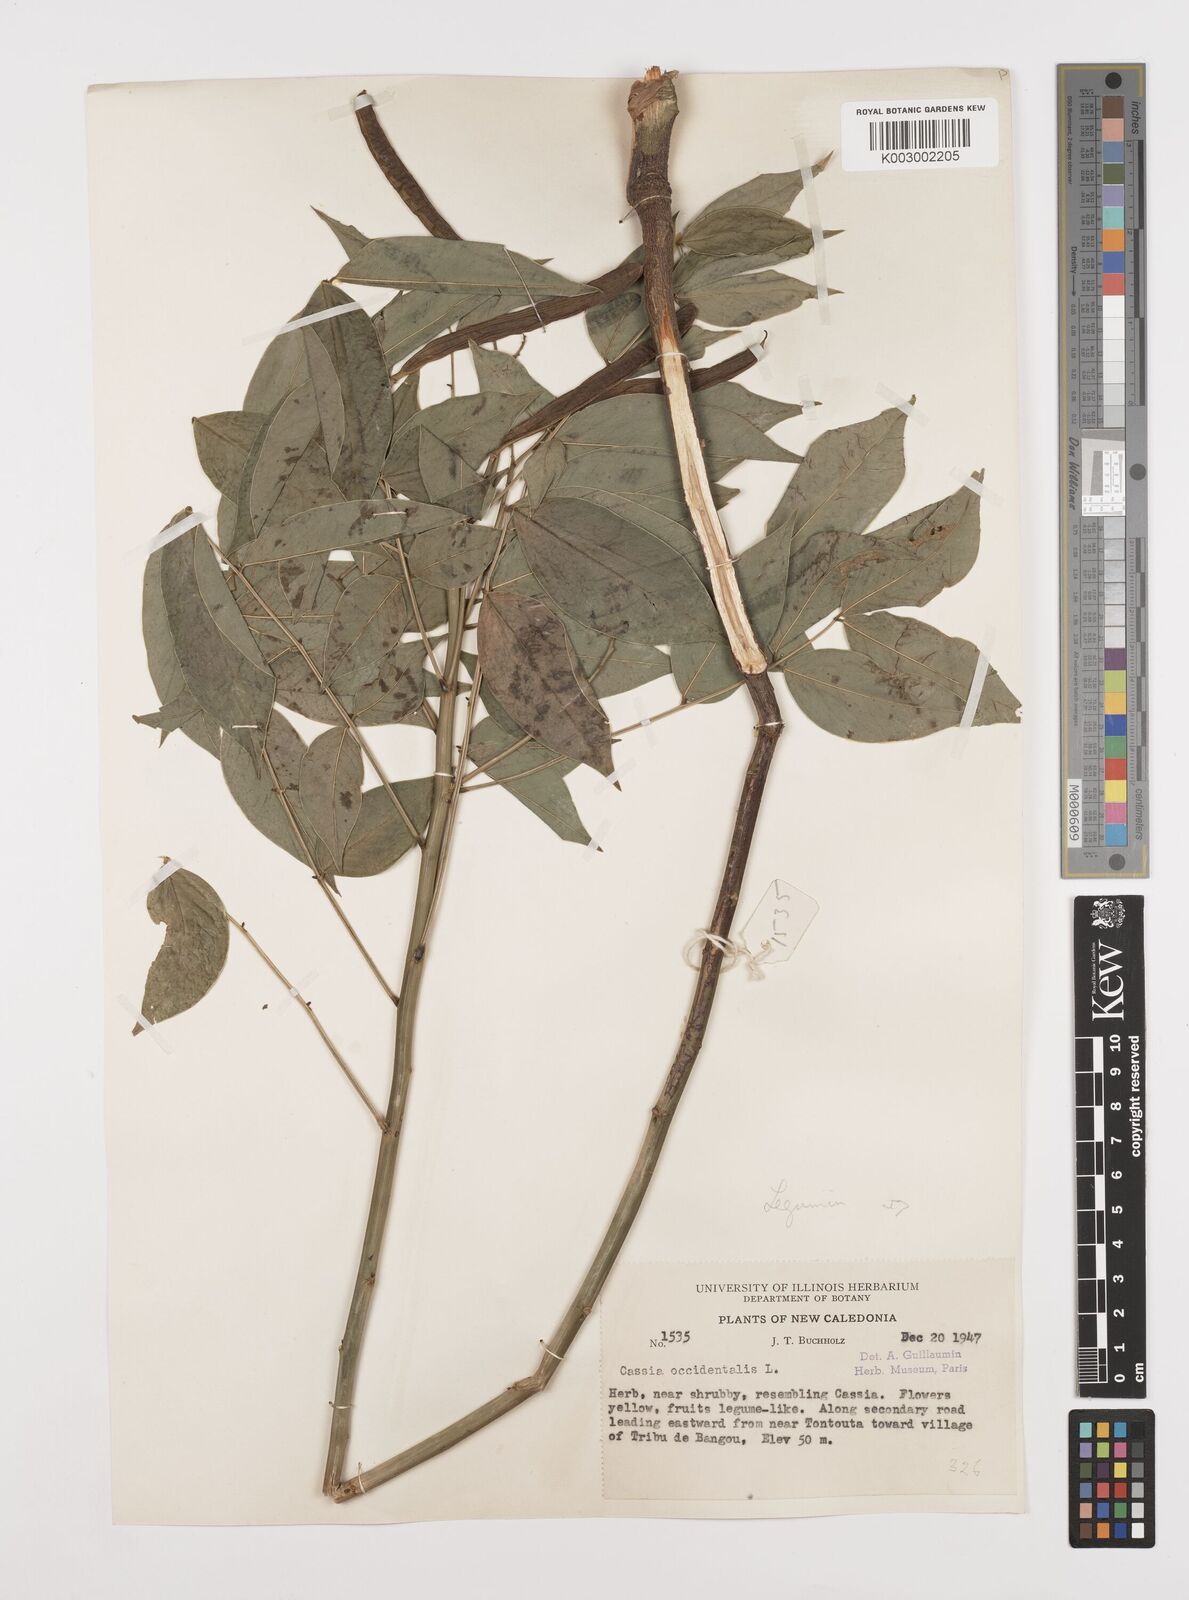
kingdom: Plantae
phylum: Tracheophyta
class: Magnoliopsida
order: Fabales
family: Fabaceae
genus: Senna
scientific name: Senna occidentalis
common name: Septicweed
